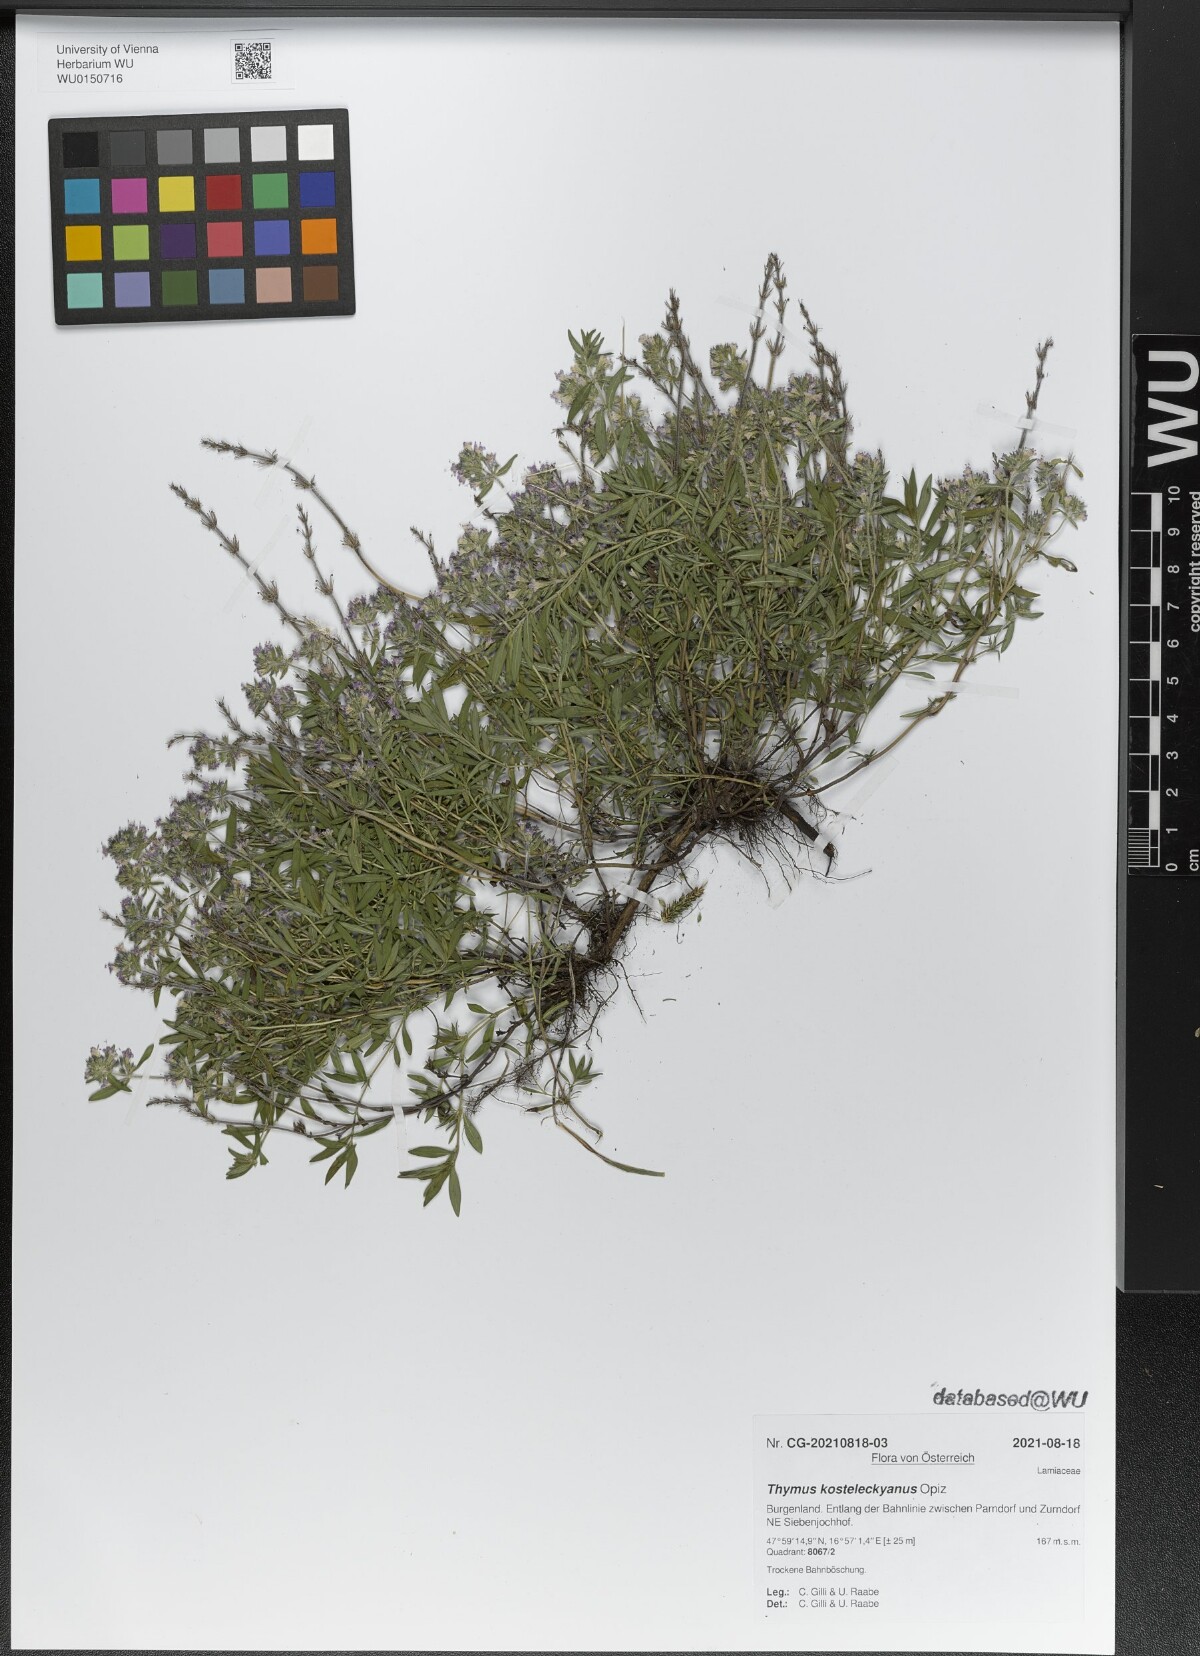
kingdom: Plantae
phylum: Tracheophyta
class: Magnoliopsida
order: Lamiales
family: Lamiaceae
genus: Thymus
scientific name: Thymus kosteleckyanus
